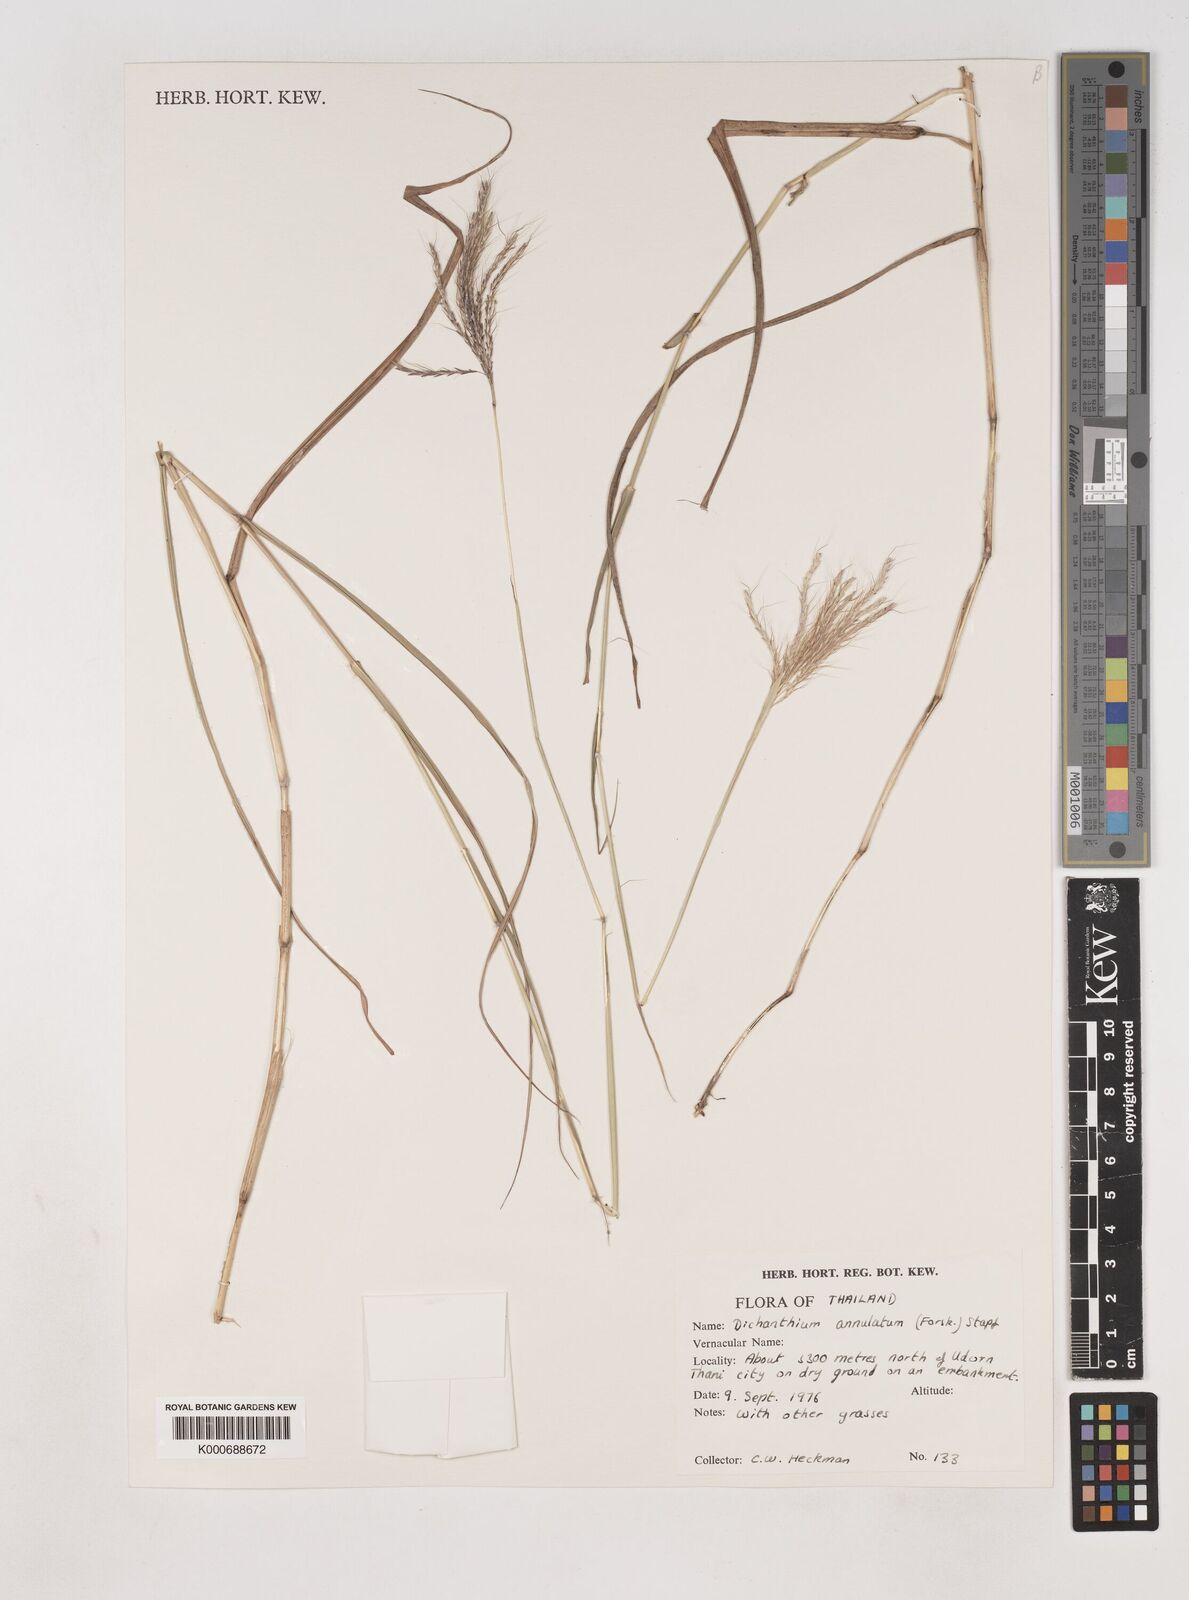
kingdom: Plantae
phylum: Tracheophyta
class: Liliopsida
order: Poales
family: Poaceae
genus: Dichanthium
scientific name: Dichanthium annulatum
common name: Kleberg's bluestem
